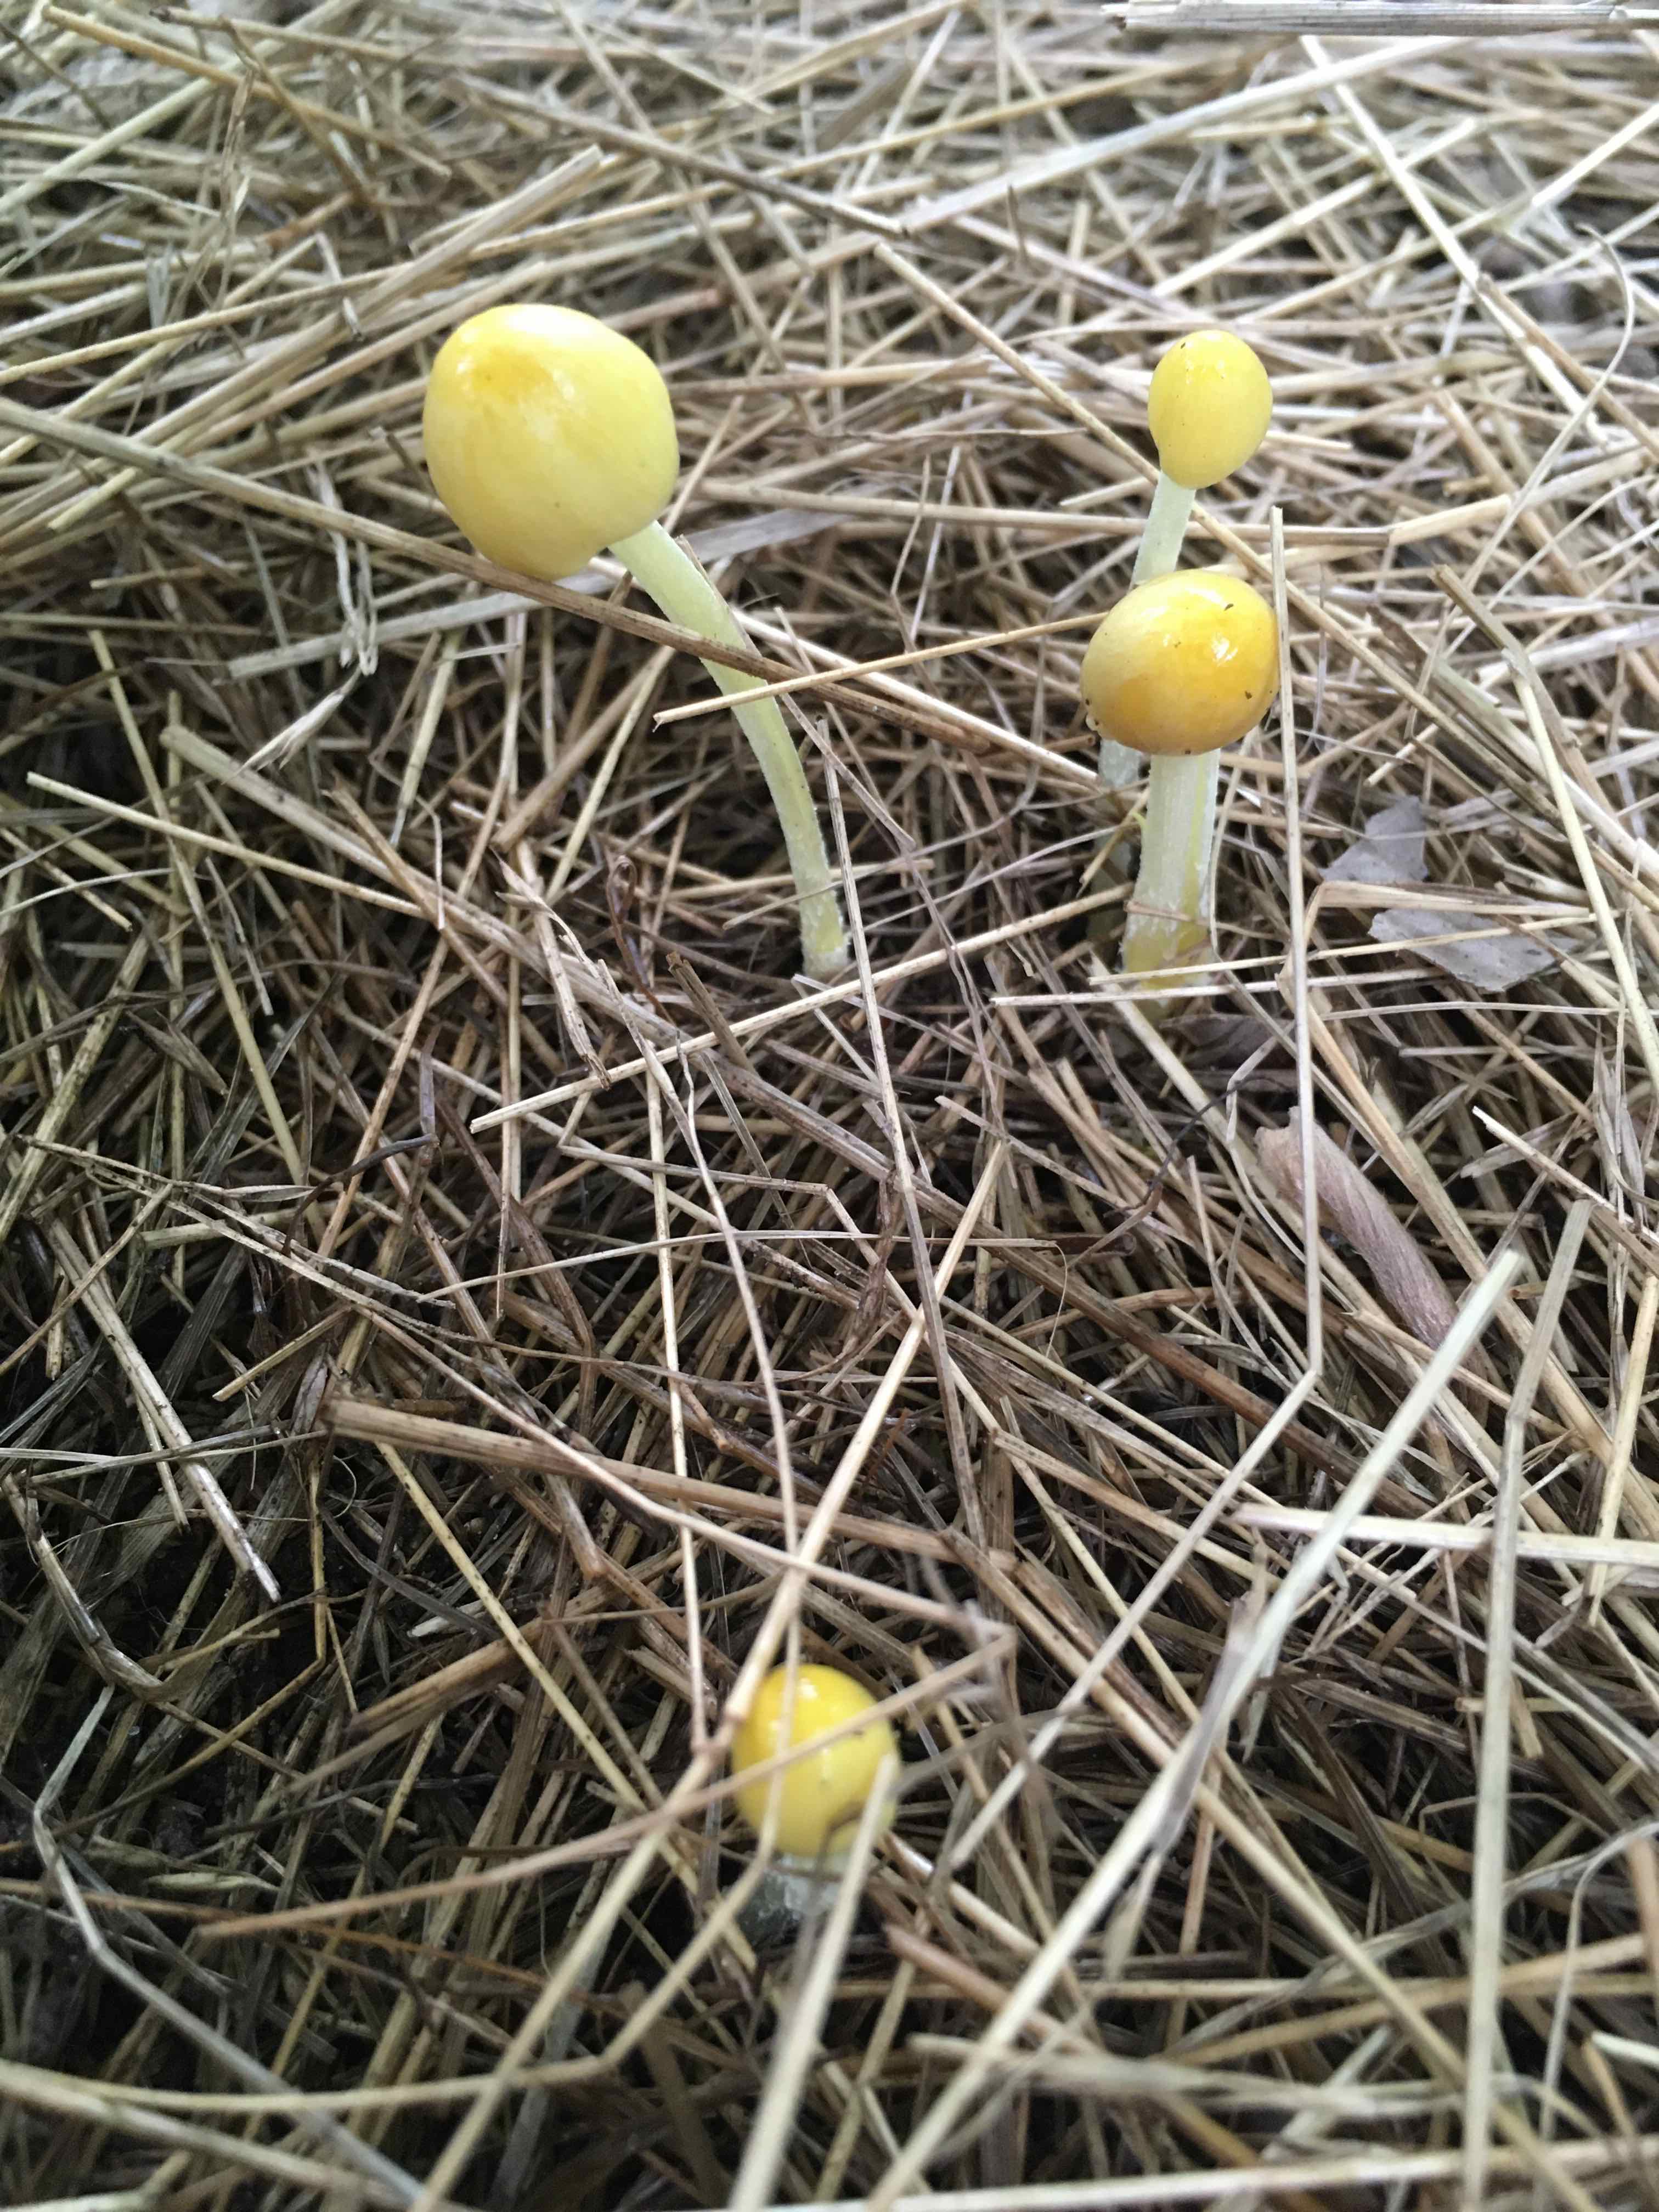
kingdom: Fungi
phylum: Basidiomycota
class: Agaricomycetes
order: Agaricales
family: Bolbitiaceae
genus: Bolbitius
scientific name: Bolbitius titubans
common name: almindelig gulhat
